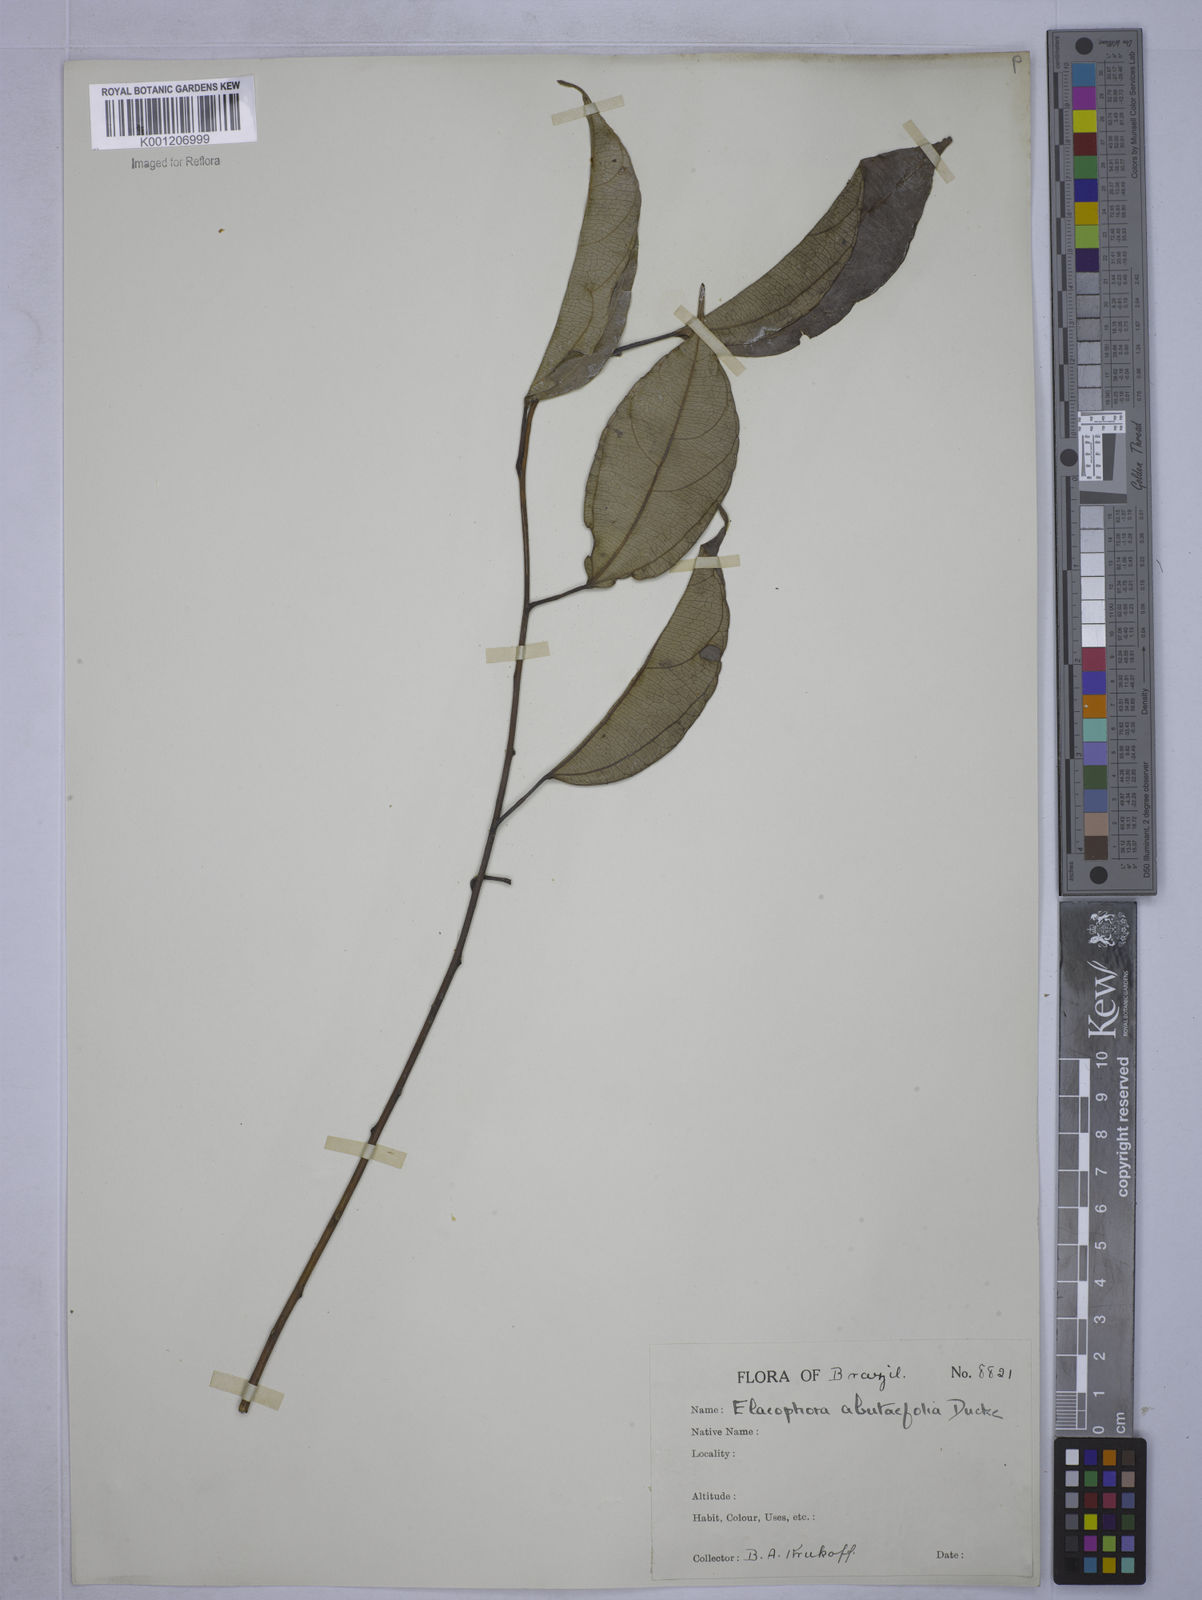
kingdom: Plantae
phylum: Tracheophyta
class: Magnoliopsida
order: Malpighiales
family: Euphorbiaceae
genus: Plukenetia
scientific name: Plukenetia
